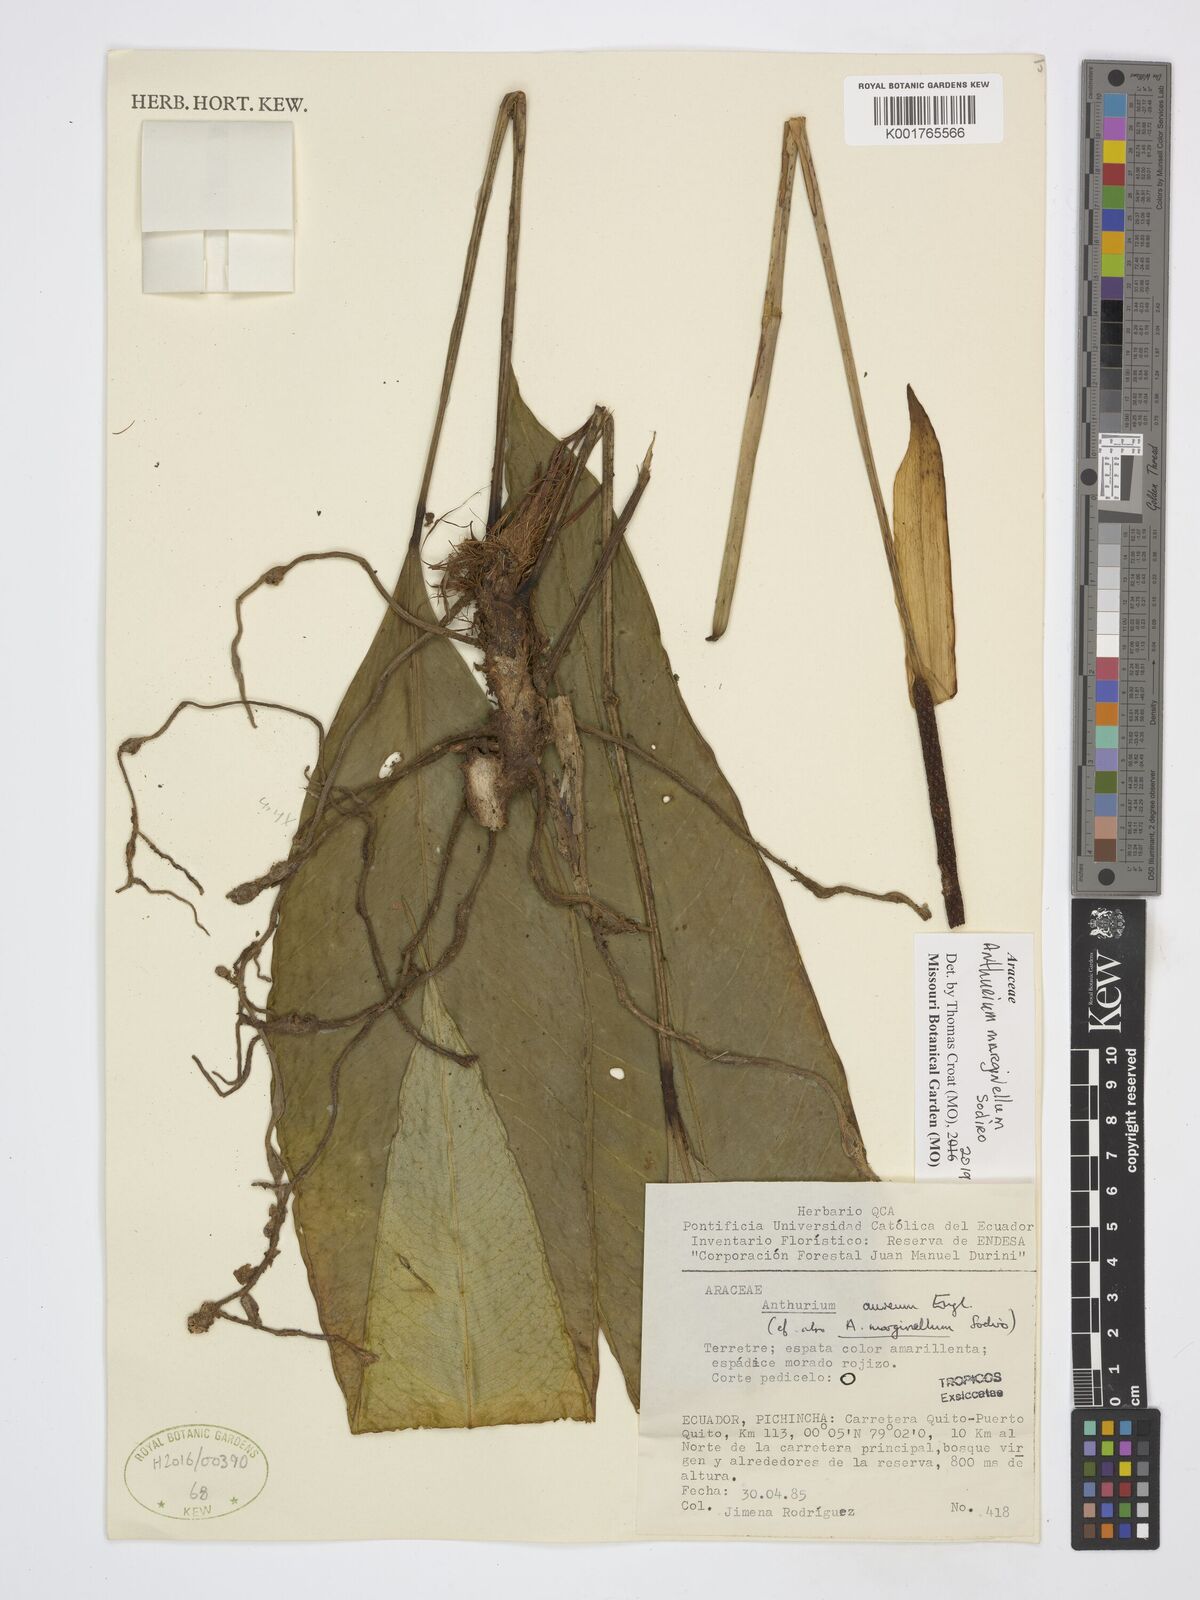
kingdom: Plantae
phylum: Tracheophyta
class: Liliopsida
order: Alismatales
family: Araceae
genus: Anthurium
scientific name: Anthurium marginellum
